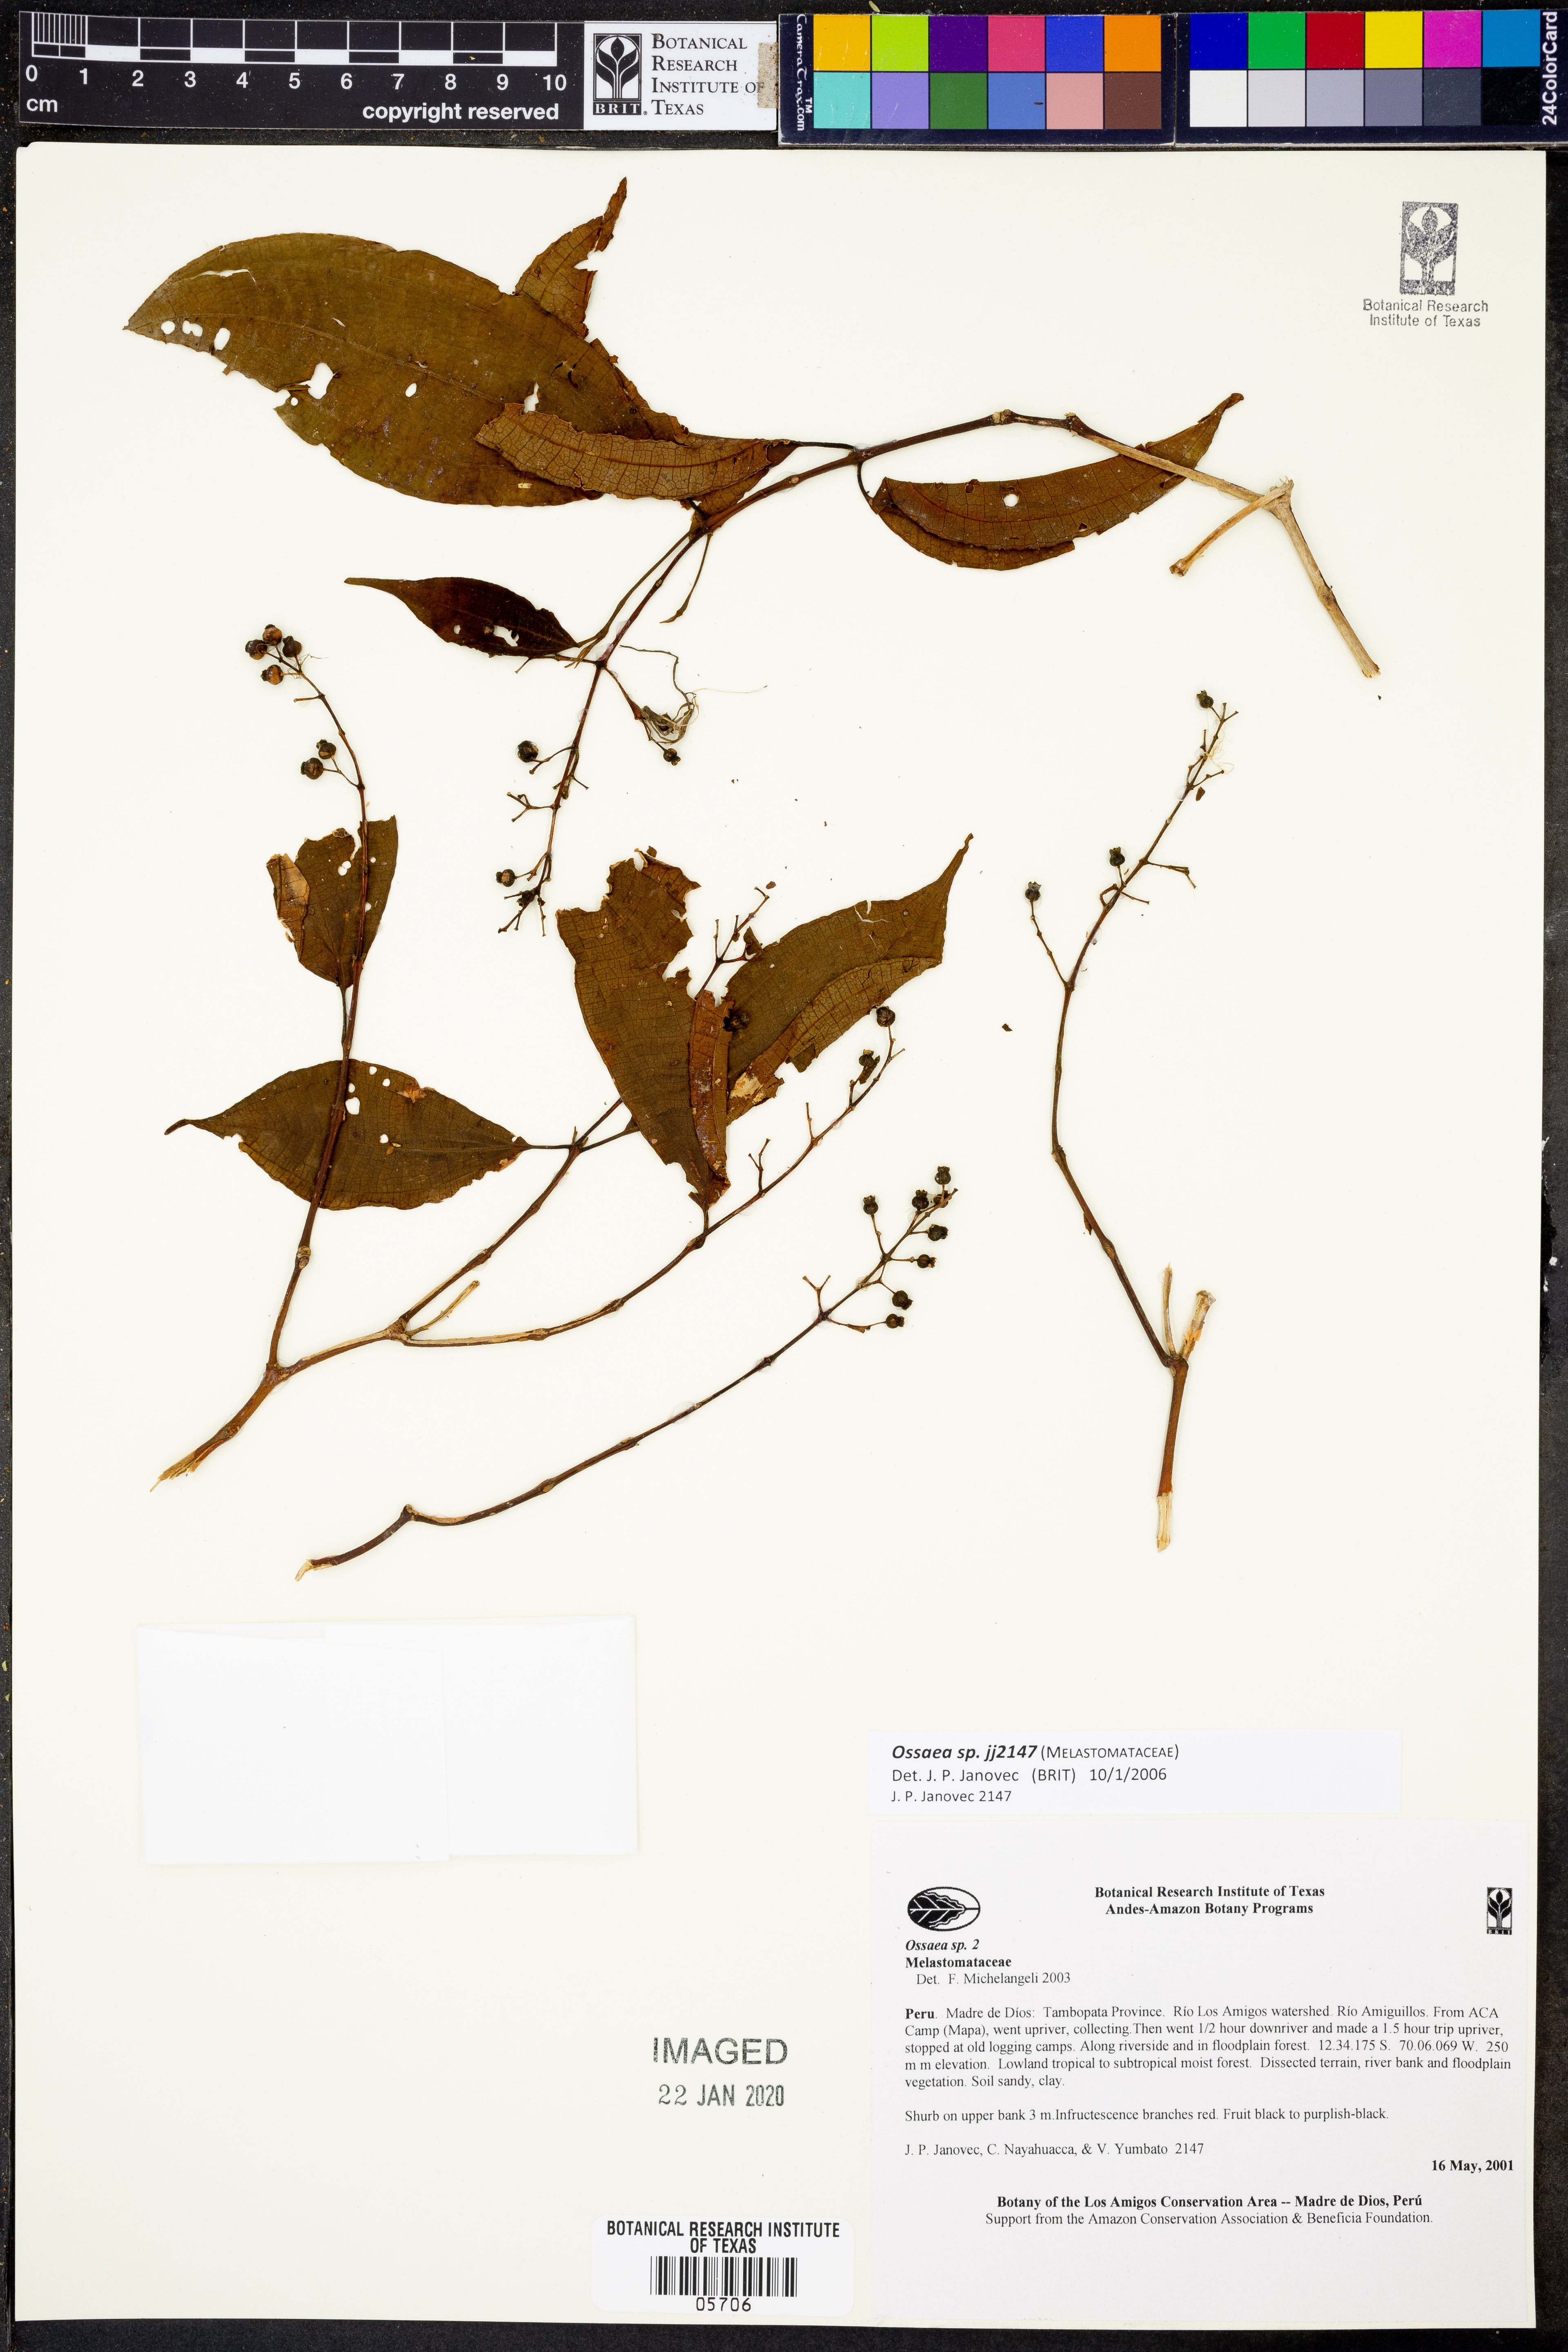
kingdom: Plantae
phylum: Tracheophyta
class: Magnoliopsida
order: Myrtales
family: Melastomataceae
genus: Ossaea
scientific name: Ossaea
